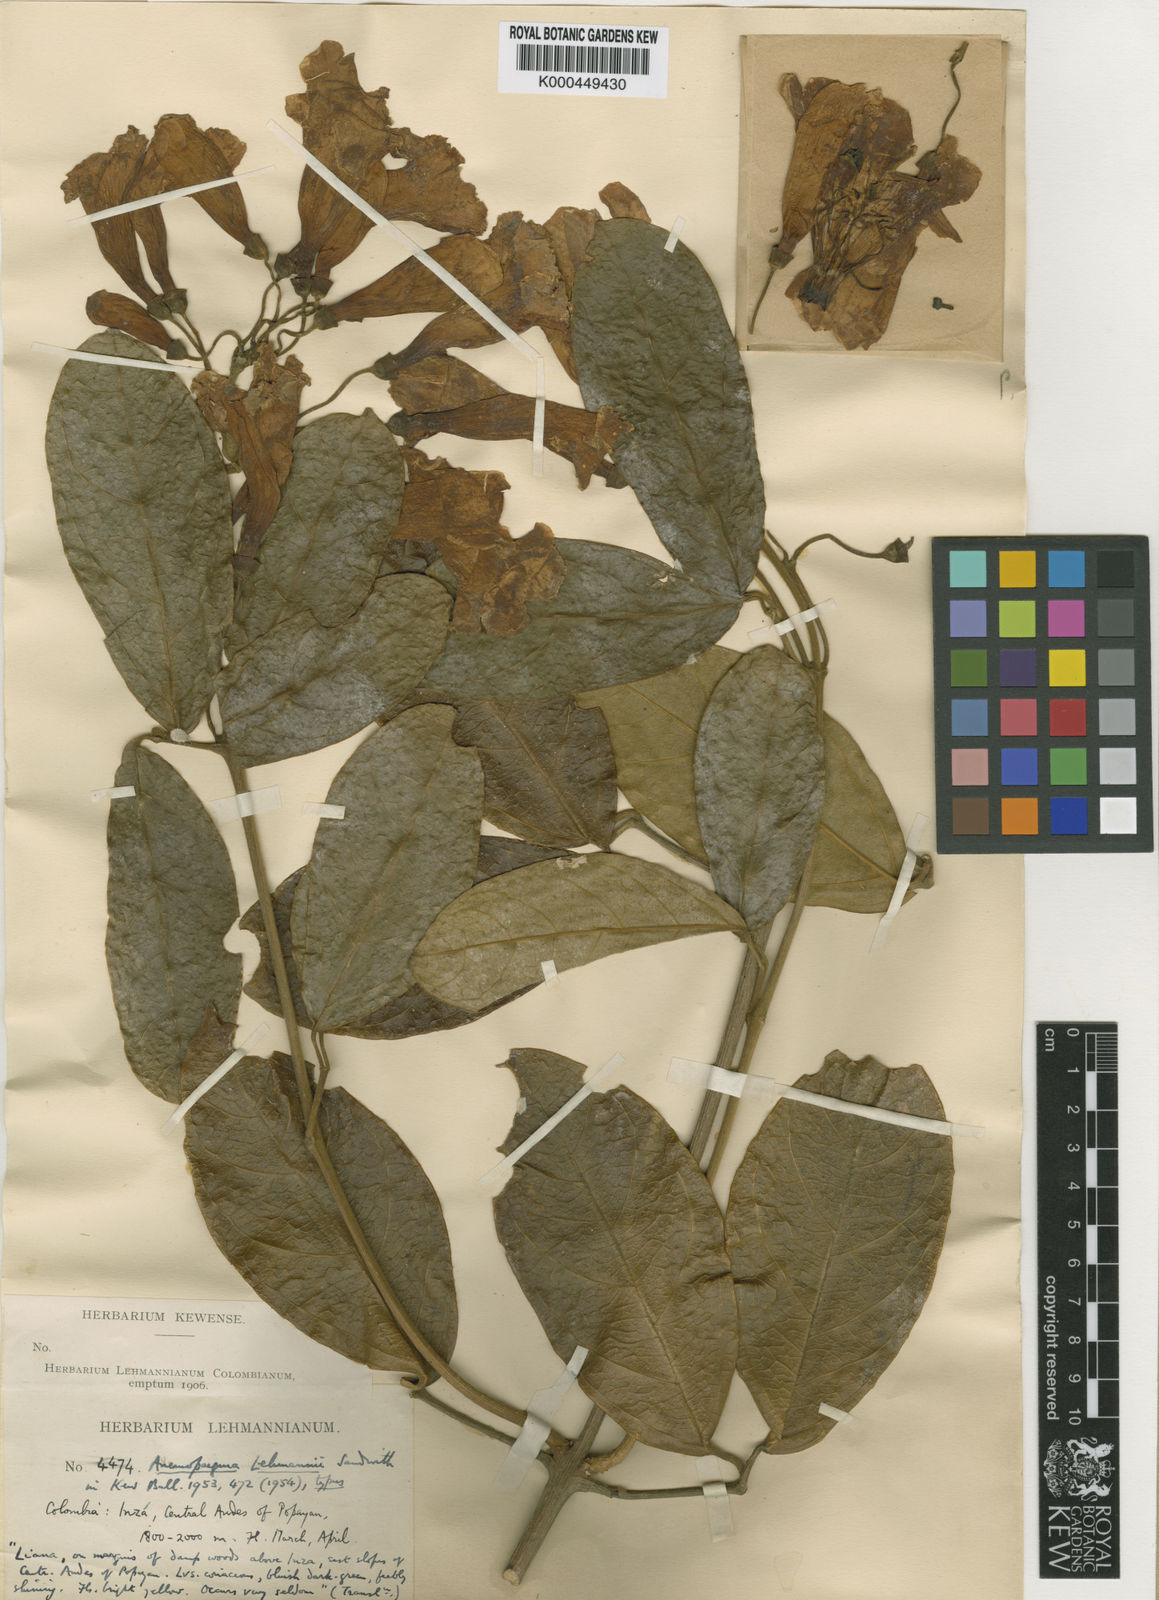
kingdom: Plantae
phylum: Tracheophyta
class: Magnoliopsida
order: Lamiales
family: Bignoniaceae
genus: Anemopaegma
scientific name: Anemopaegma puberulum
